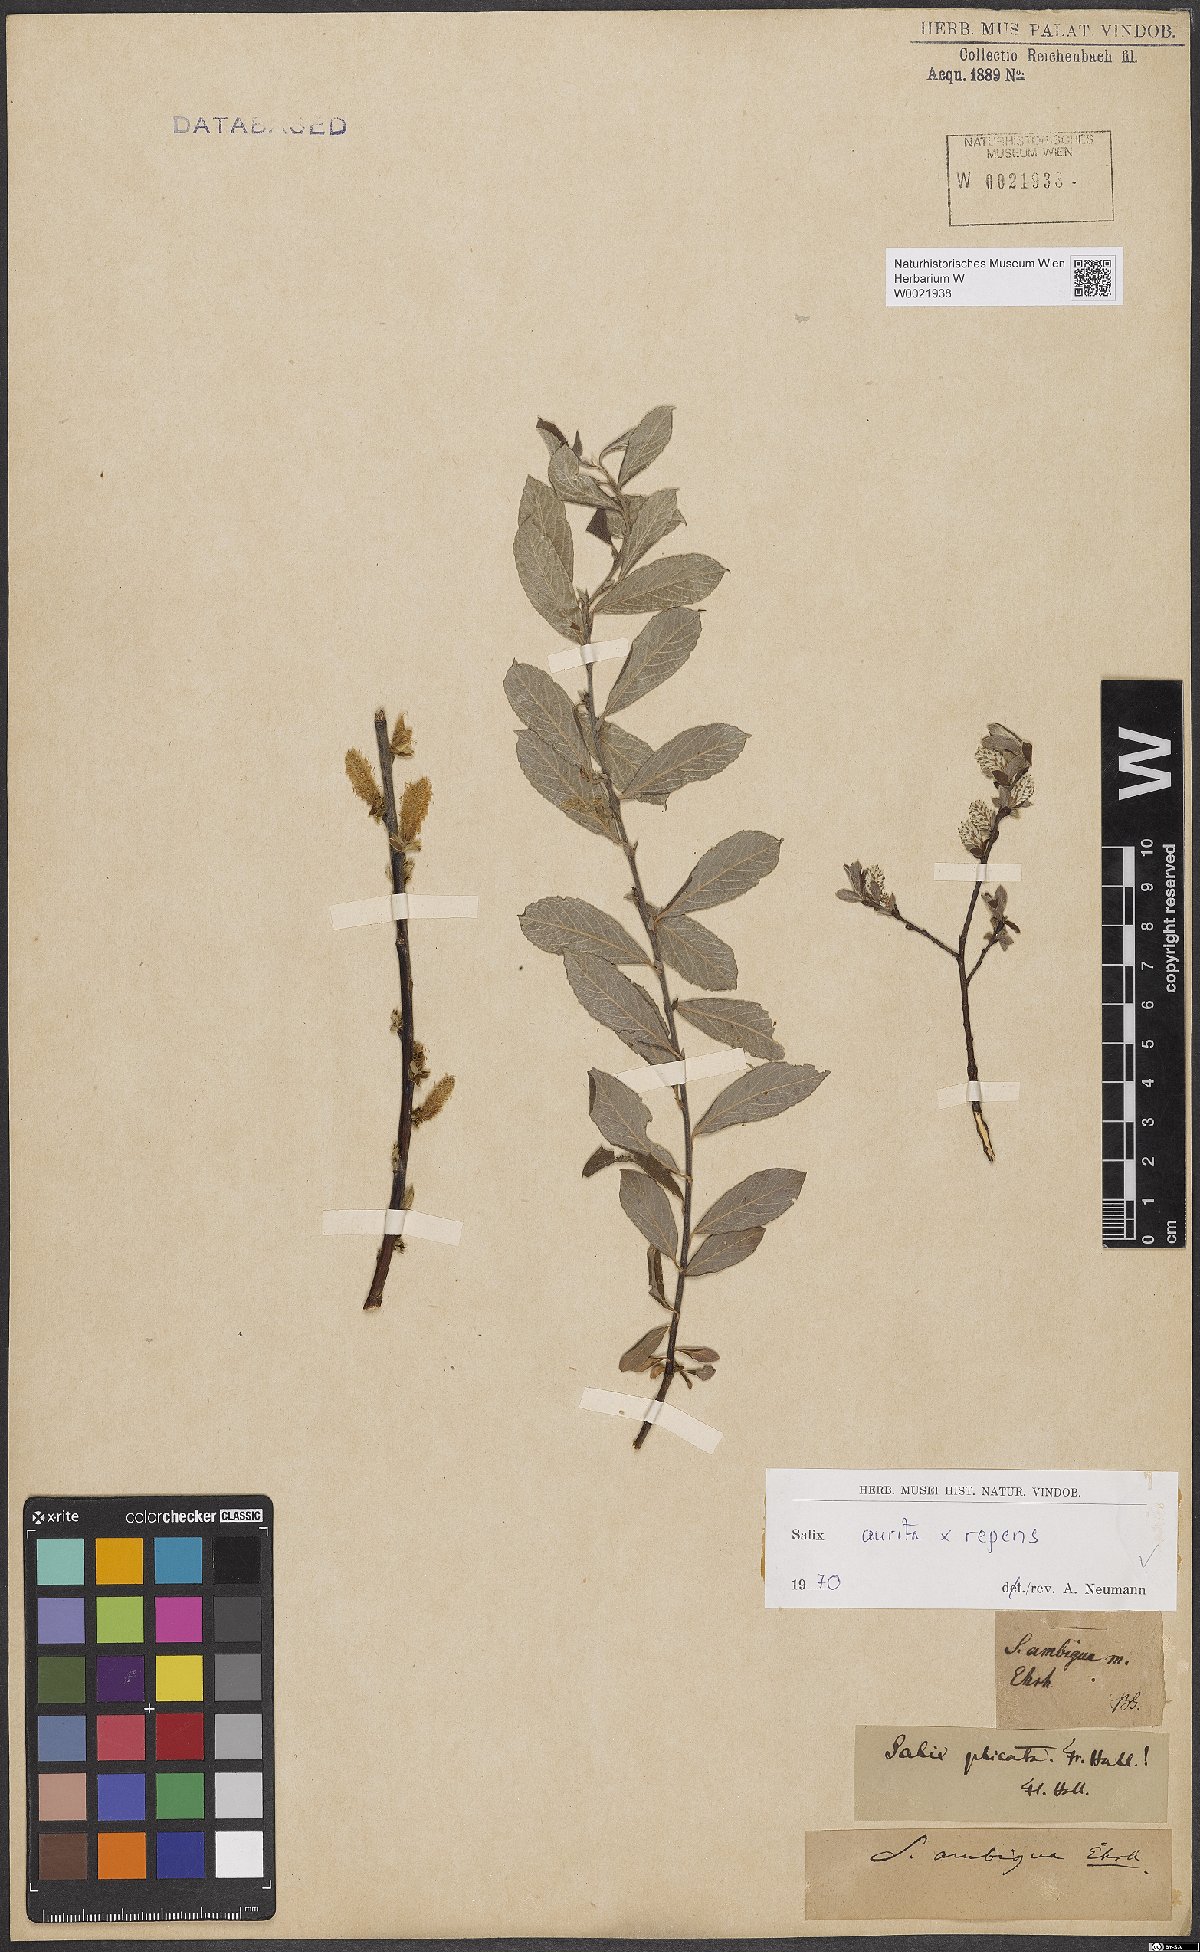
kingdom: Plantae
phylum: Tracheophyta
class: Magnoliopsida
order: Malpighiales
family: Salicaceae
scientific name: Salicaceae
